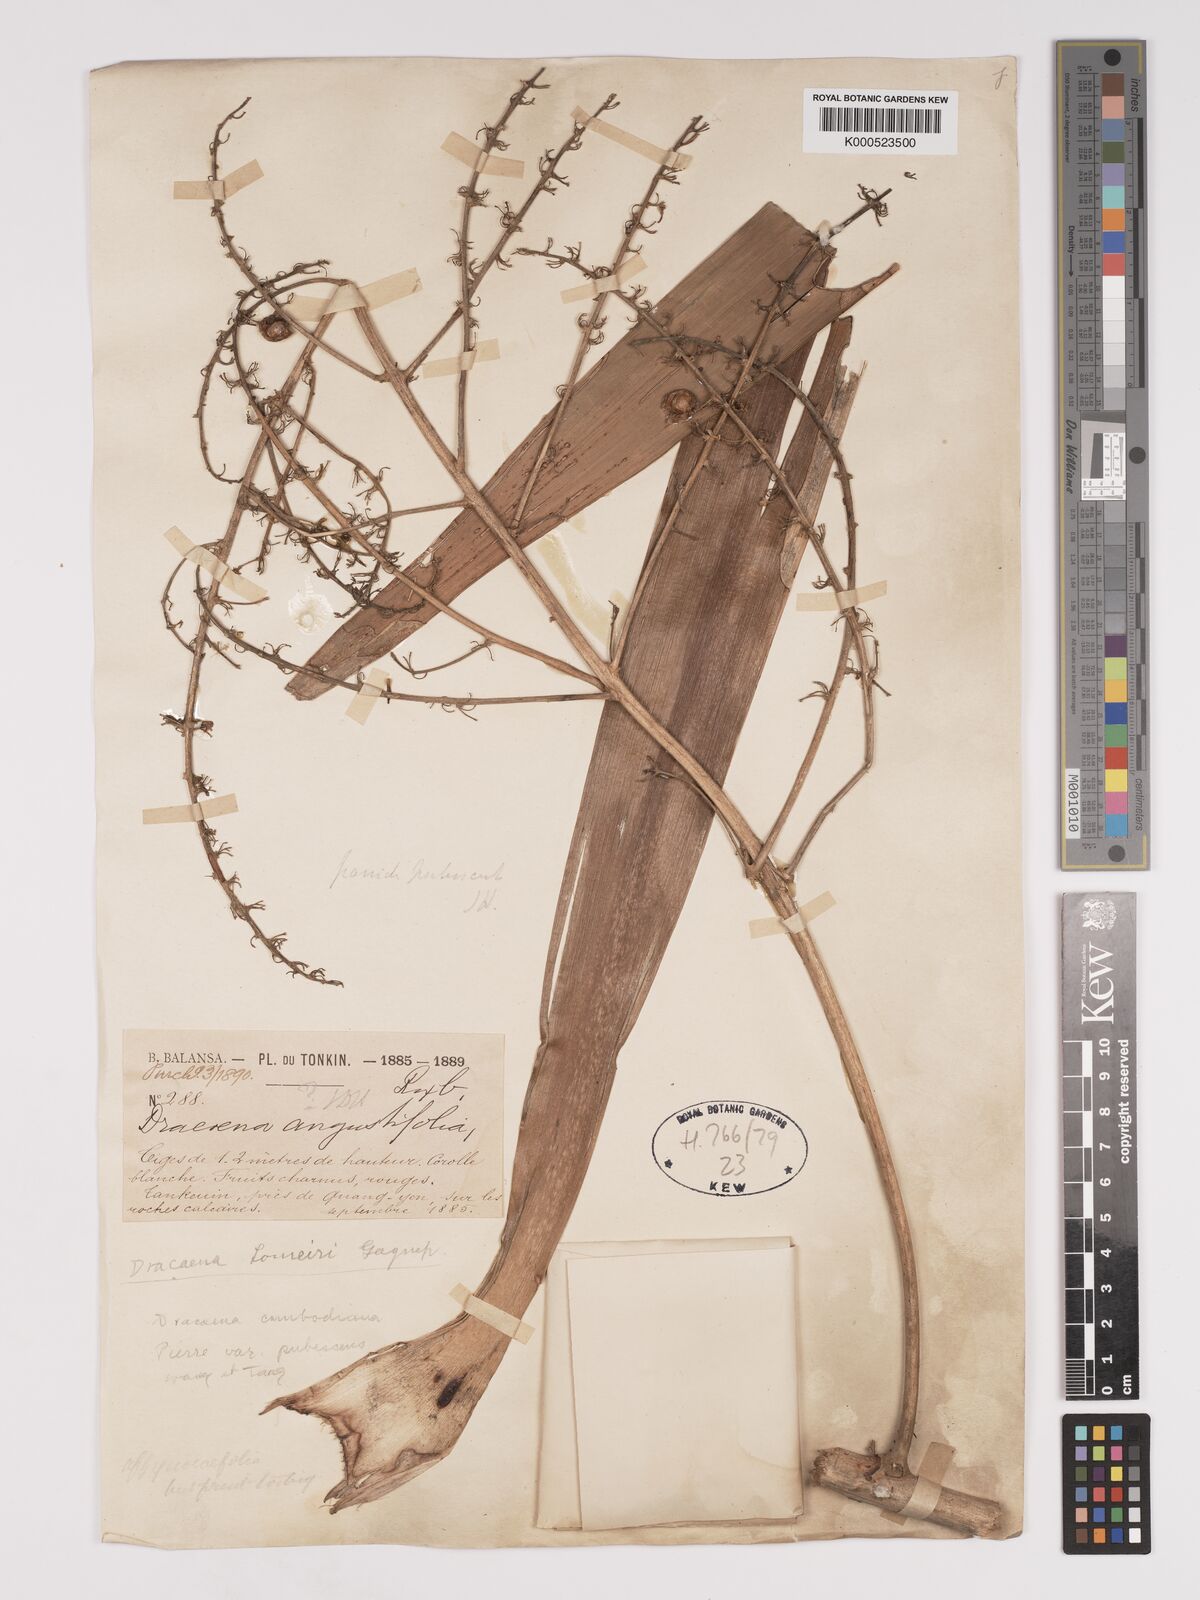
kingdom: Plantae
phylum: Tracheophyta
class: Liliopsida
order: Asparagales
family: Asparagaceae
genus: Dracaena
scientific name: Dracaena cochinchinensis
